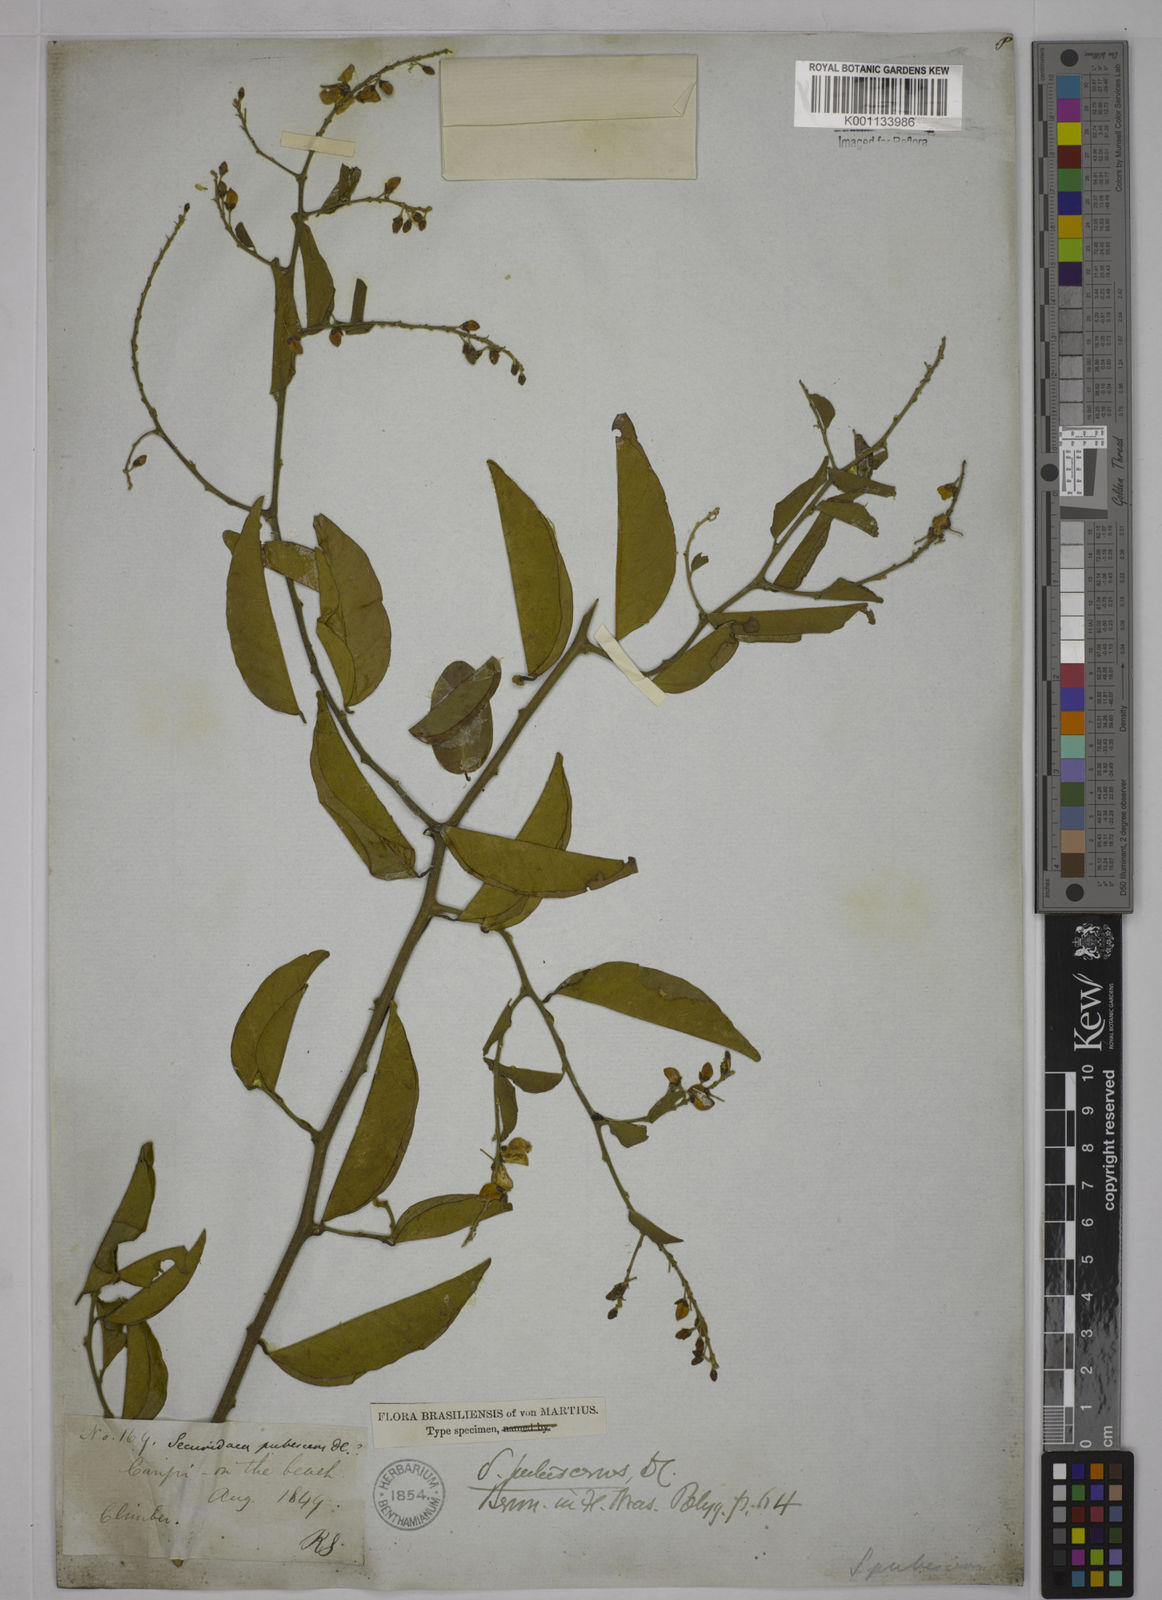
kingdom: Plantae
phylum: Tracheophyta
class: Magnoliopsida
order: Fabales
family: Polygalaceae
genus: Securidaca
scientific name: Securidaca diversifolia
